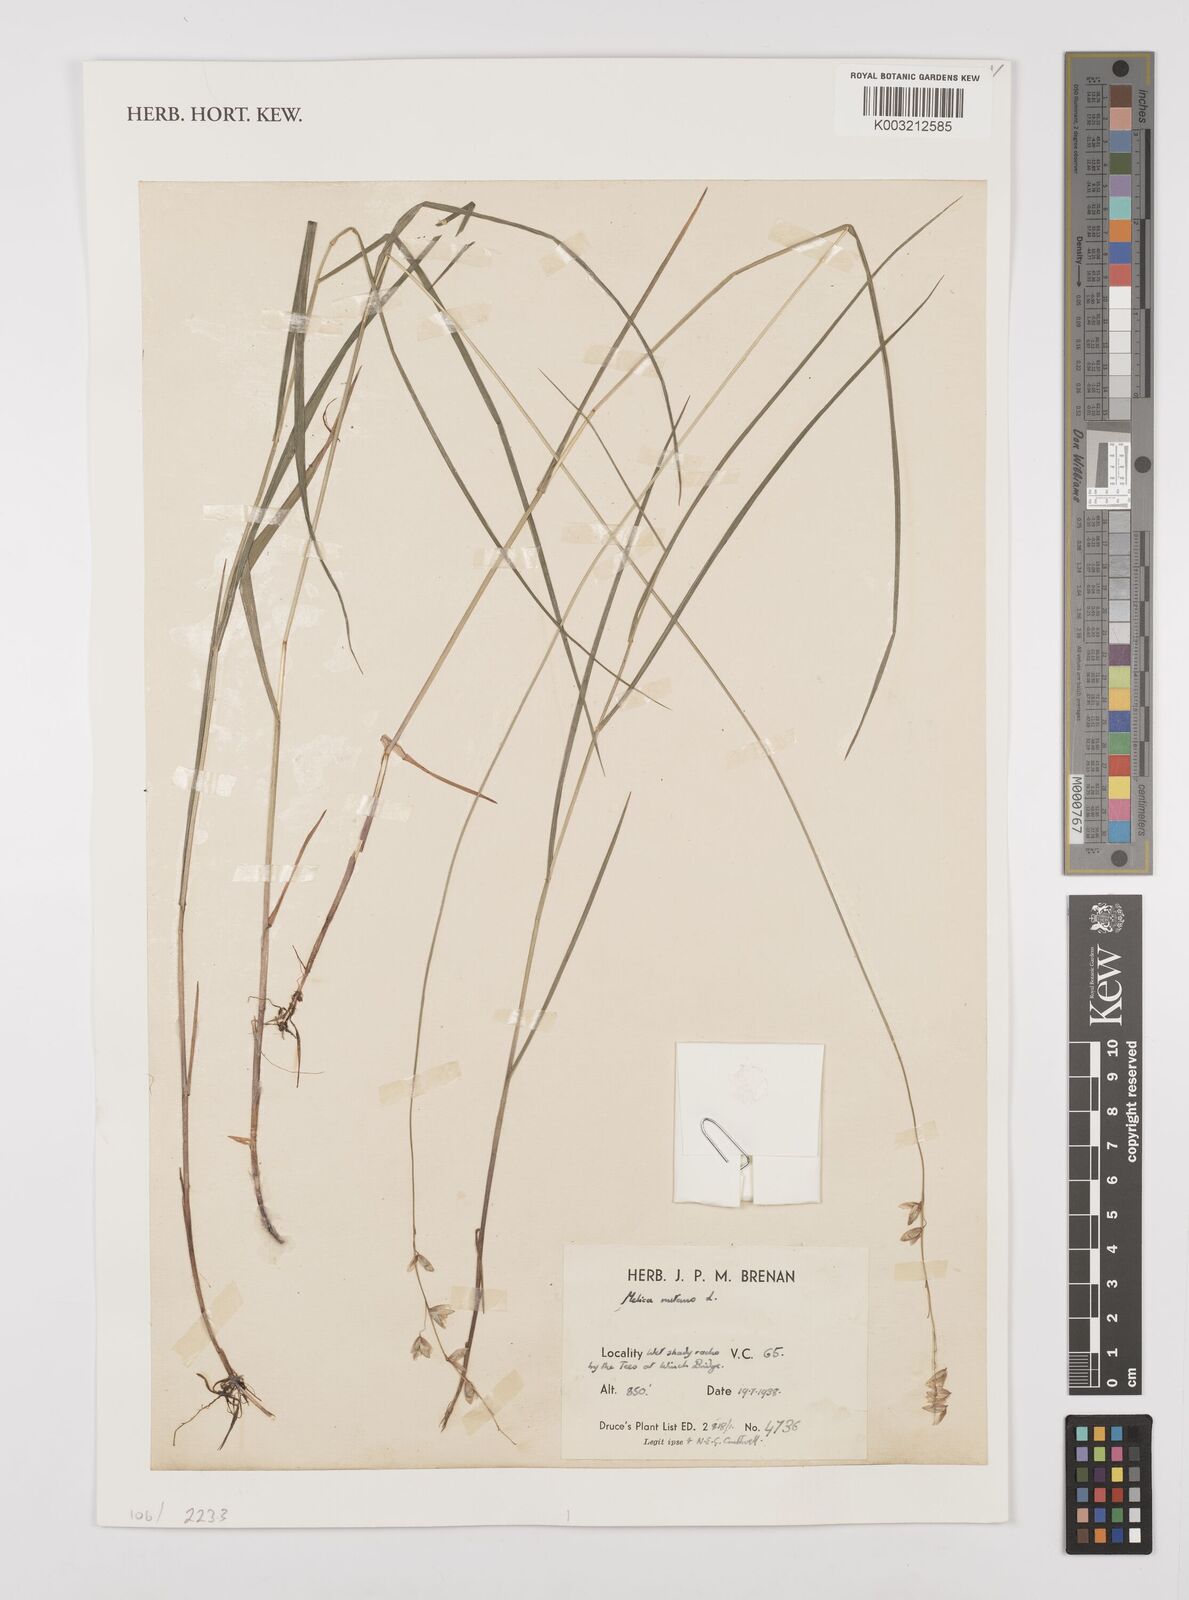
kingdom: Plantae
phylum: Tracheophyta
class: Liliopsida
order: Poales
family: Poaceae
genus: Melica
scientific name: Melica
